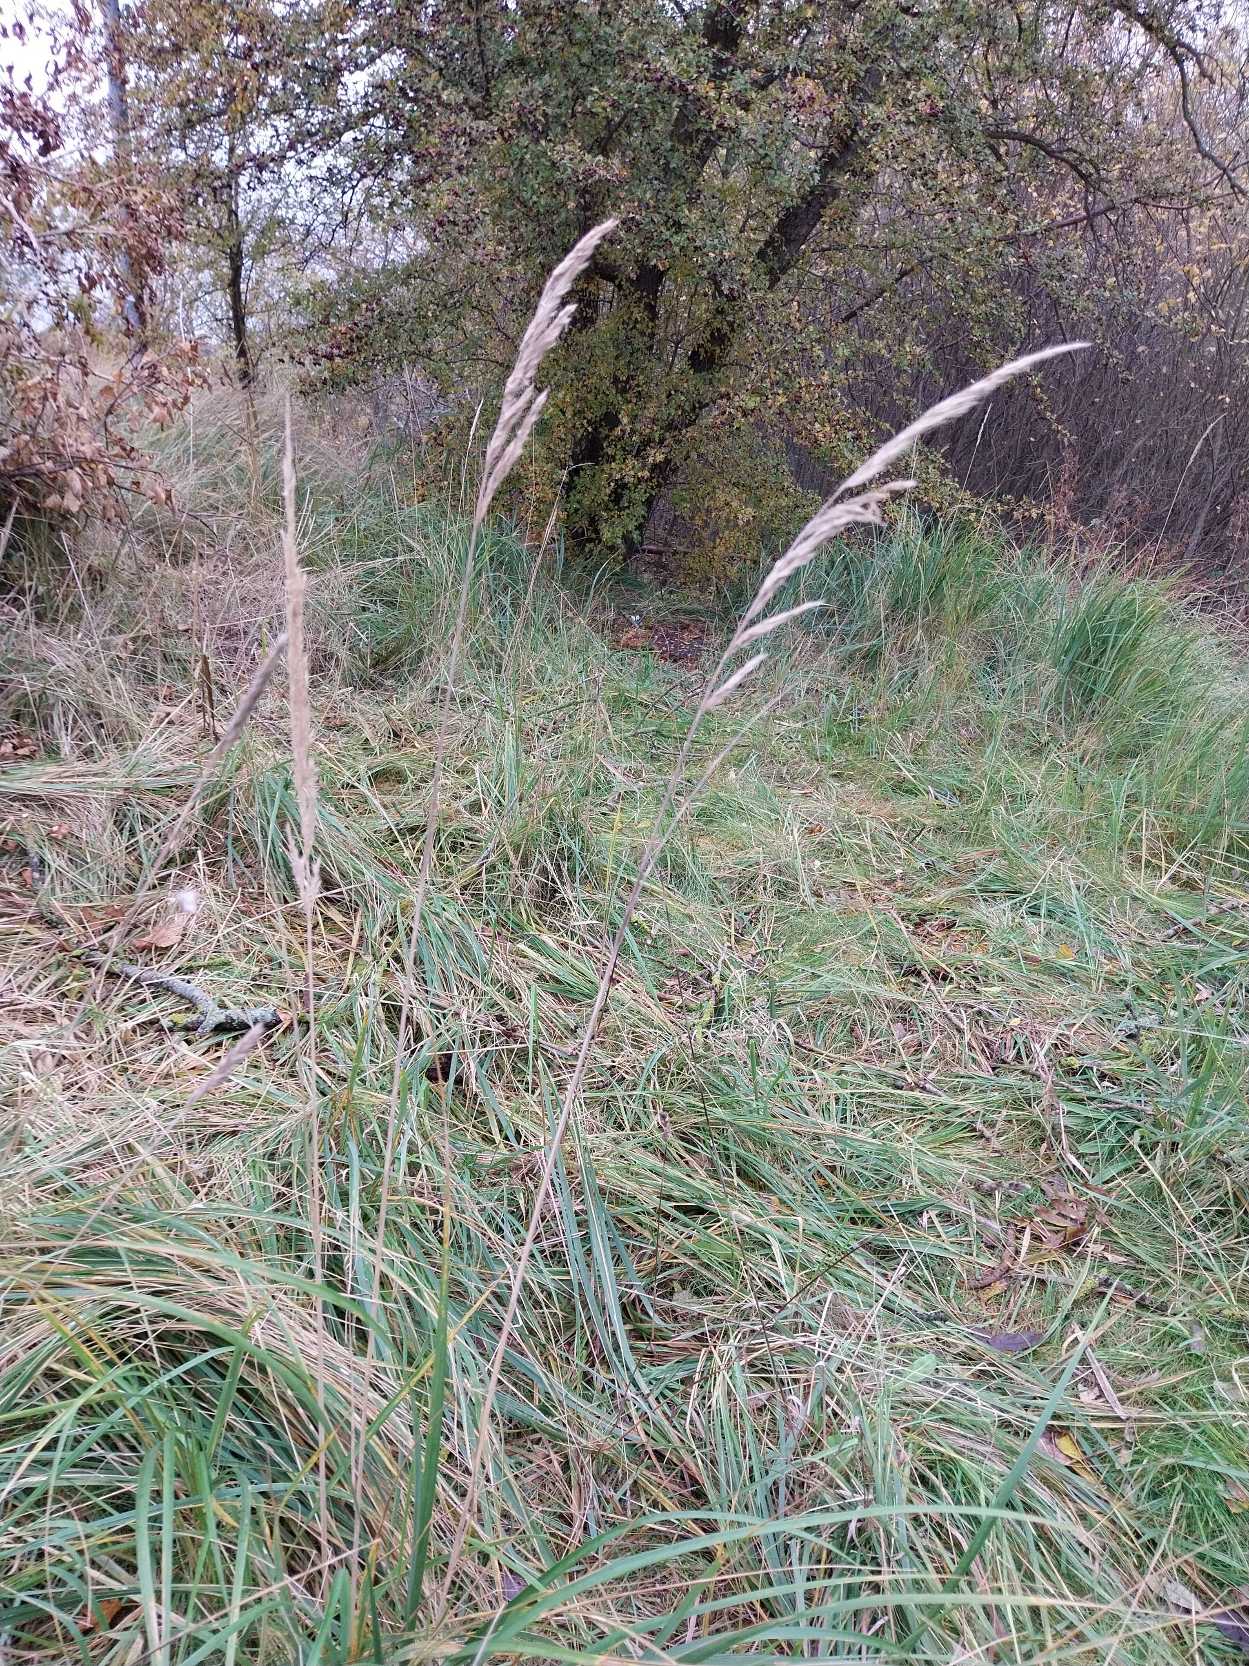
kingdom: Plantae
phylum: Tracheophyta
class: Liliopsida
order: Poales
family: Poaceae
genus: Calamagrostis
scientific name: Calamagrostis epigejos
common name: Bjerg-rørhvene
